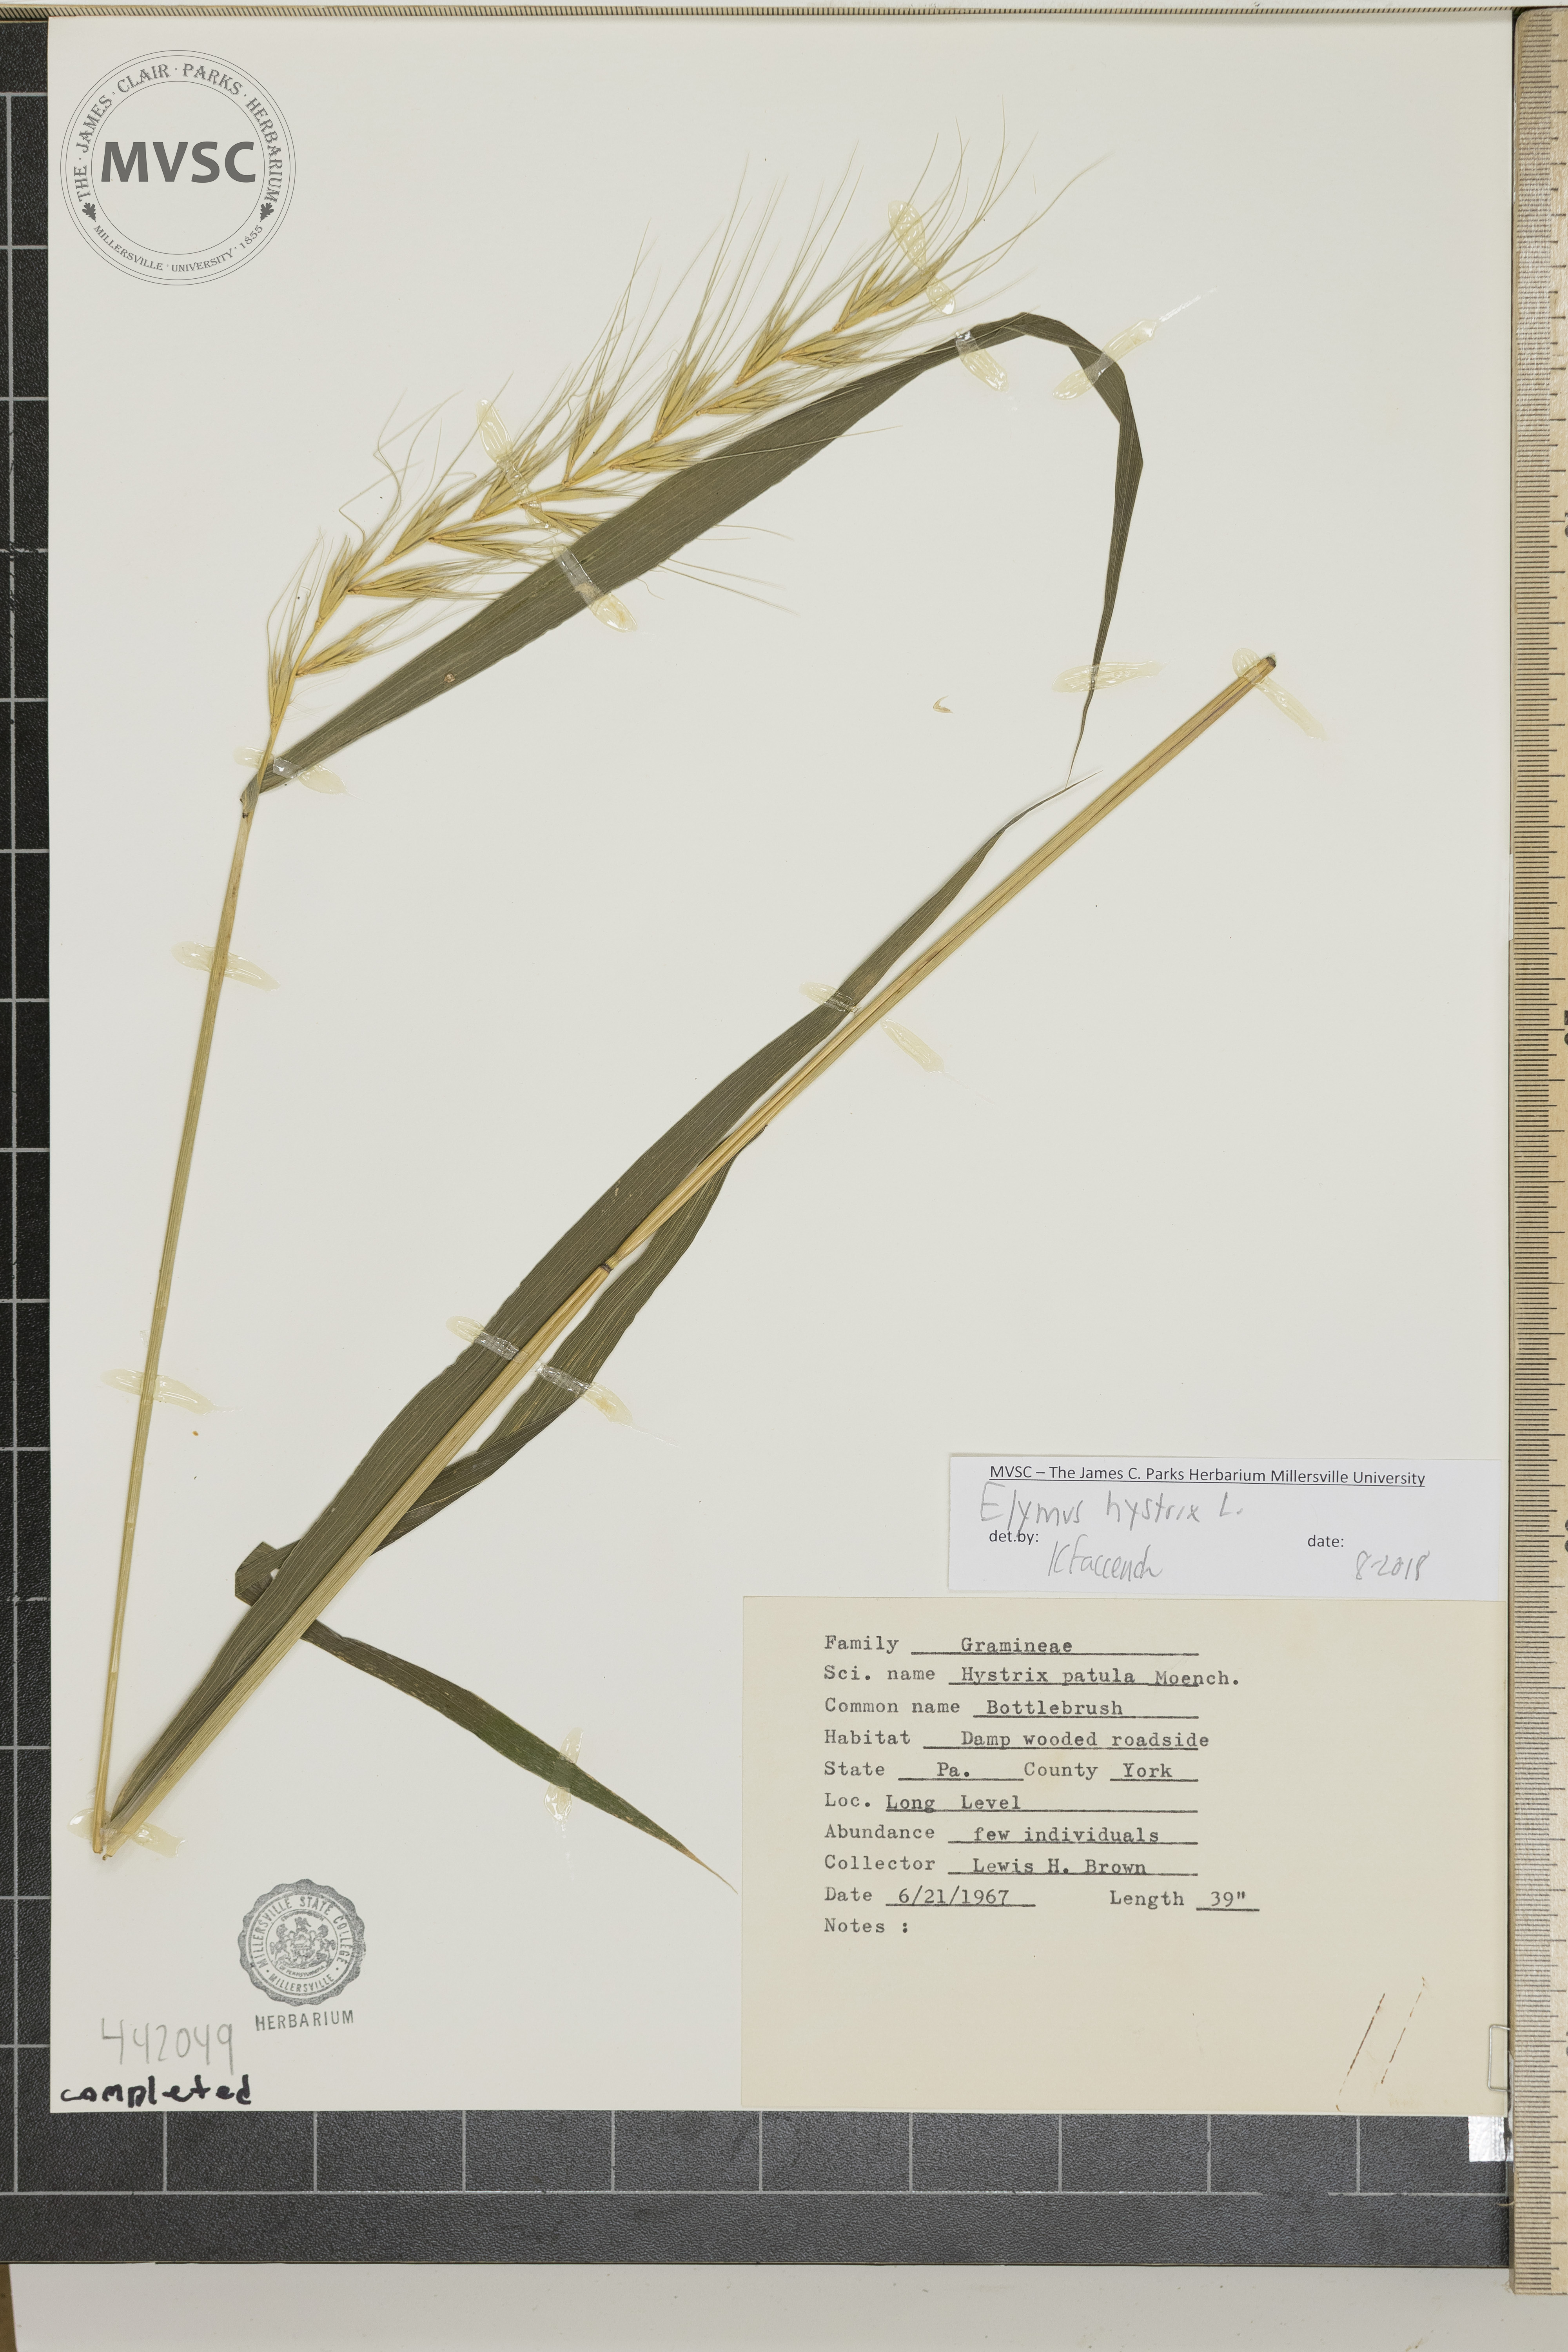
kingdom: Plantae
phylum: Tracheophyta
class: Liliopsida
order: Poales
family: Poaceae
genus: Elymus
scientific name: Elymus hystrix
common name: Bottlebrush
